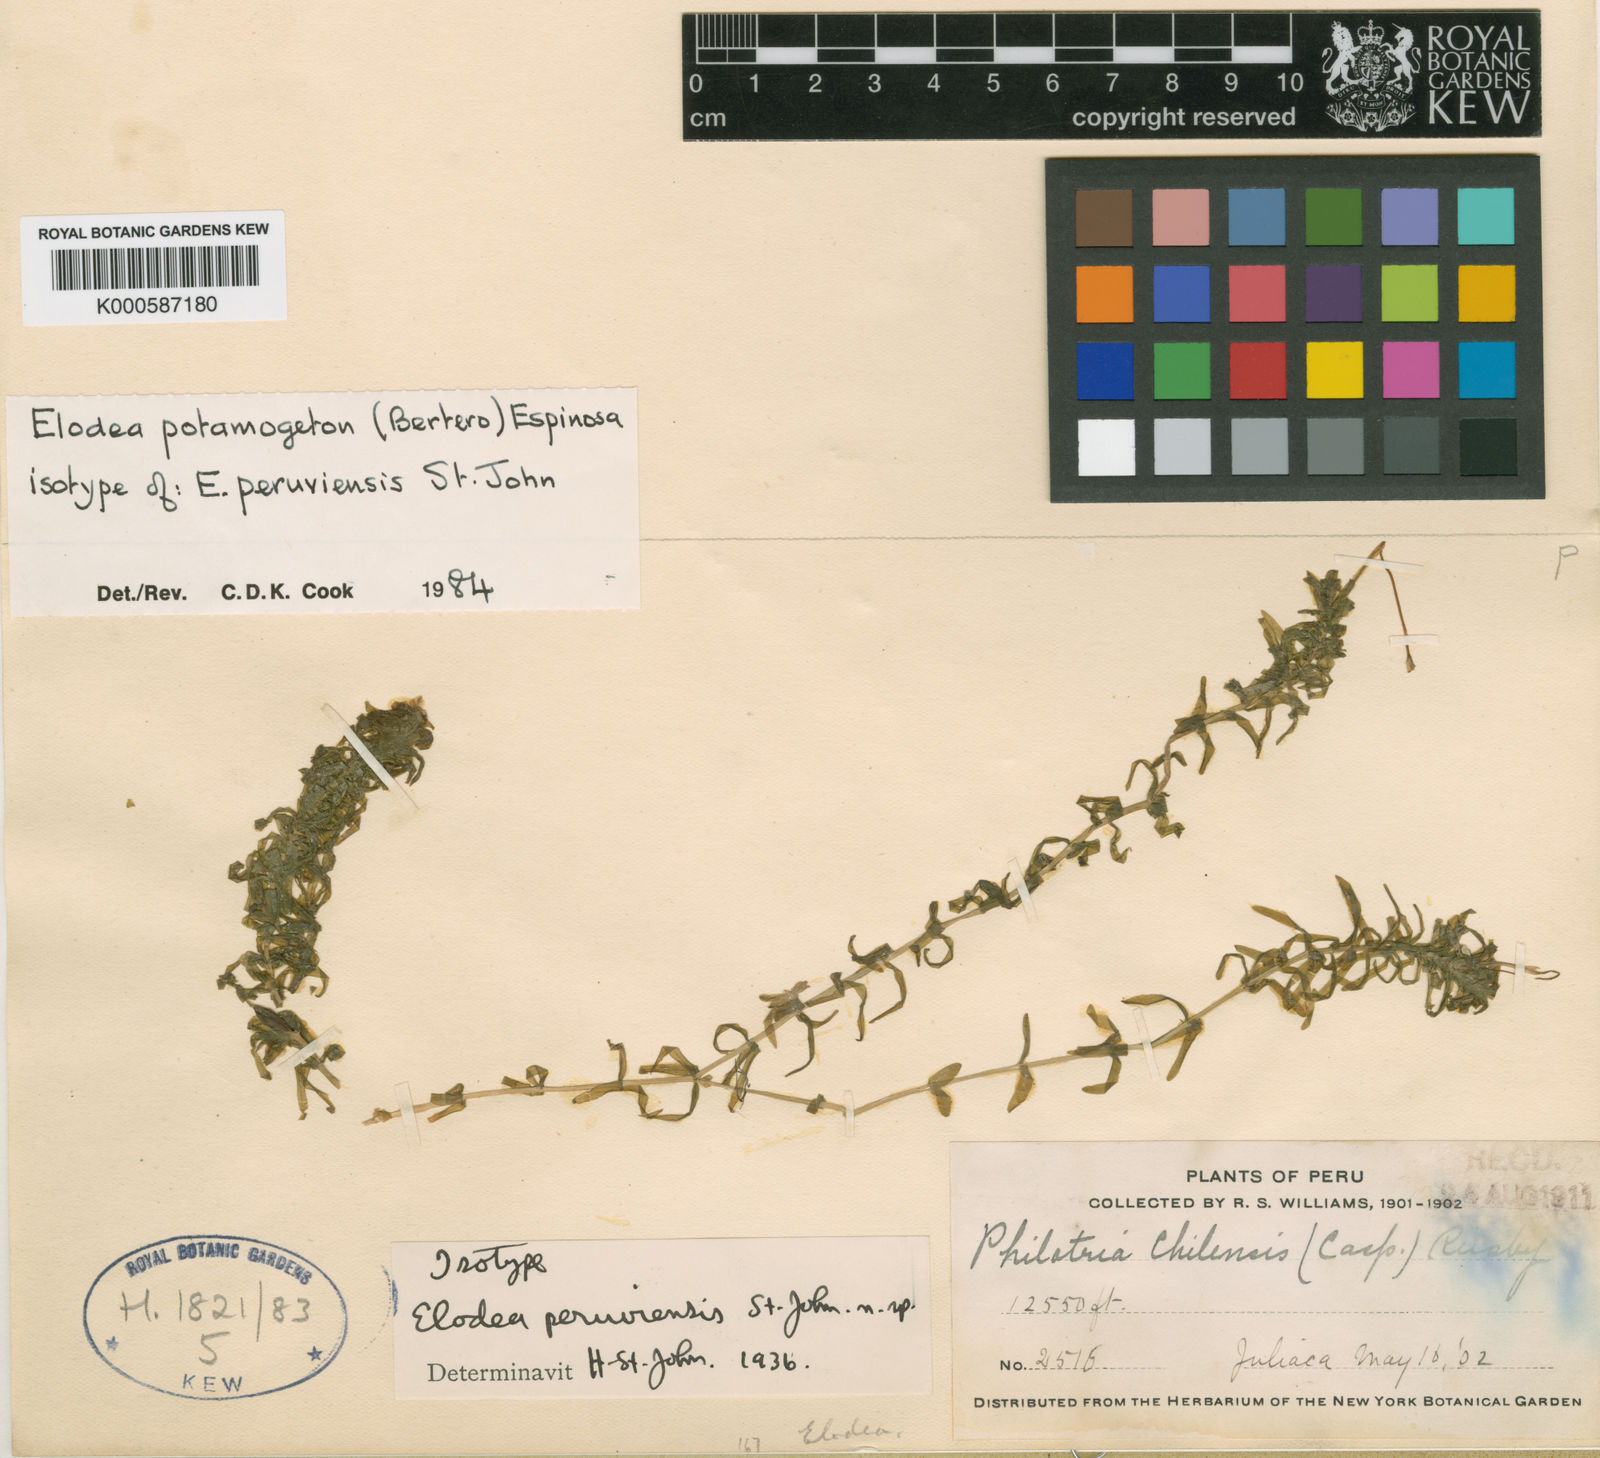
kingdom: Plantae
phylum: Tracheophyta
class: Liliopsida
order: Alismatales
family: Hydrocharitaceae
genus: Elodea
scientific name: Elodea potamogeton
